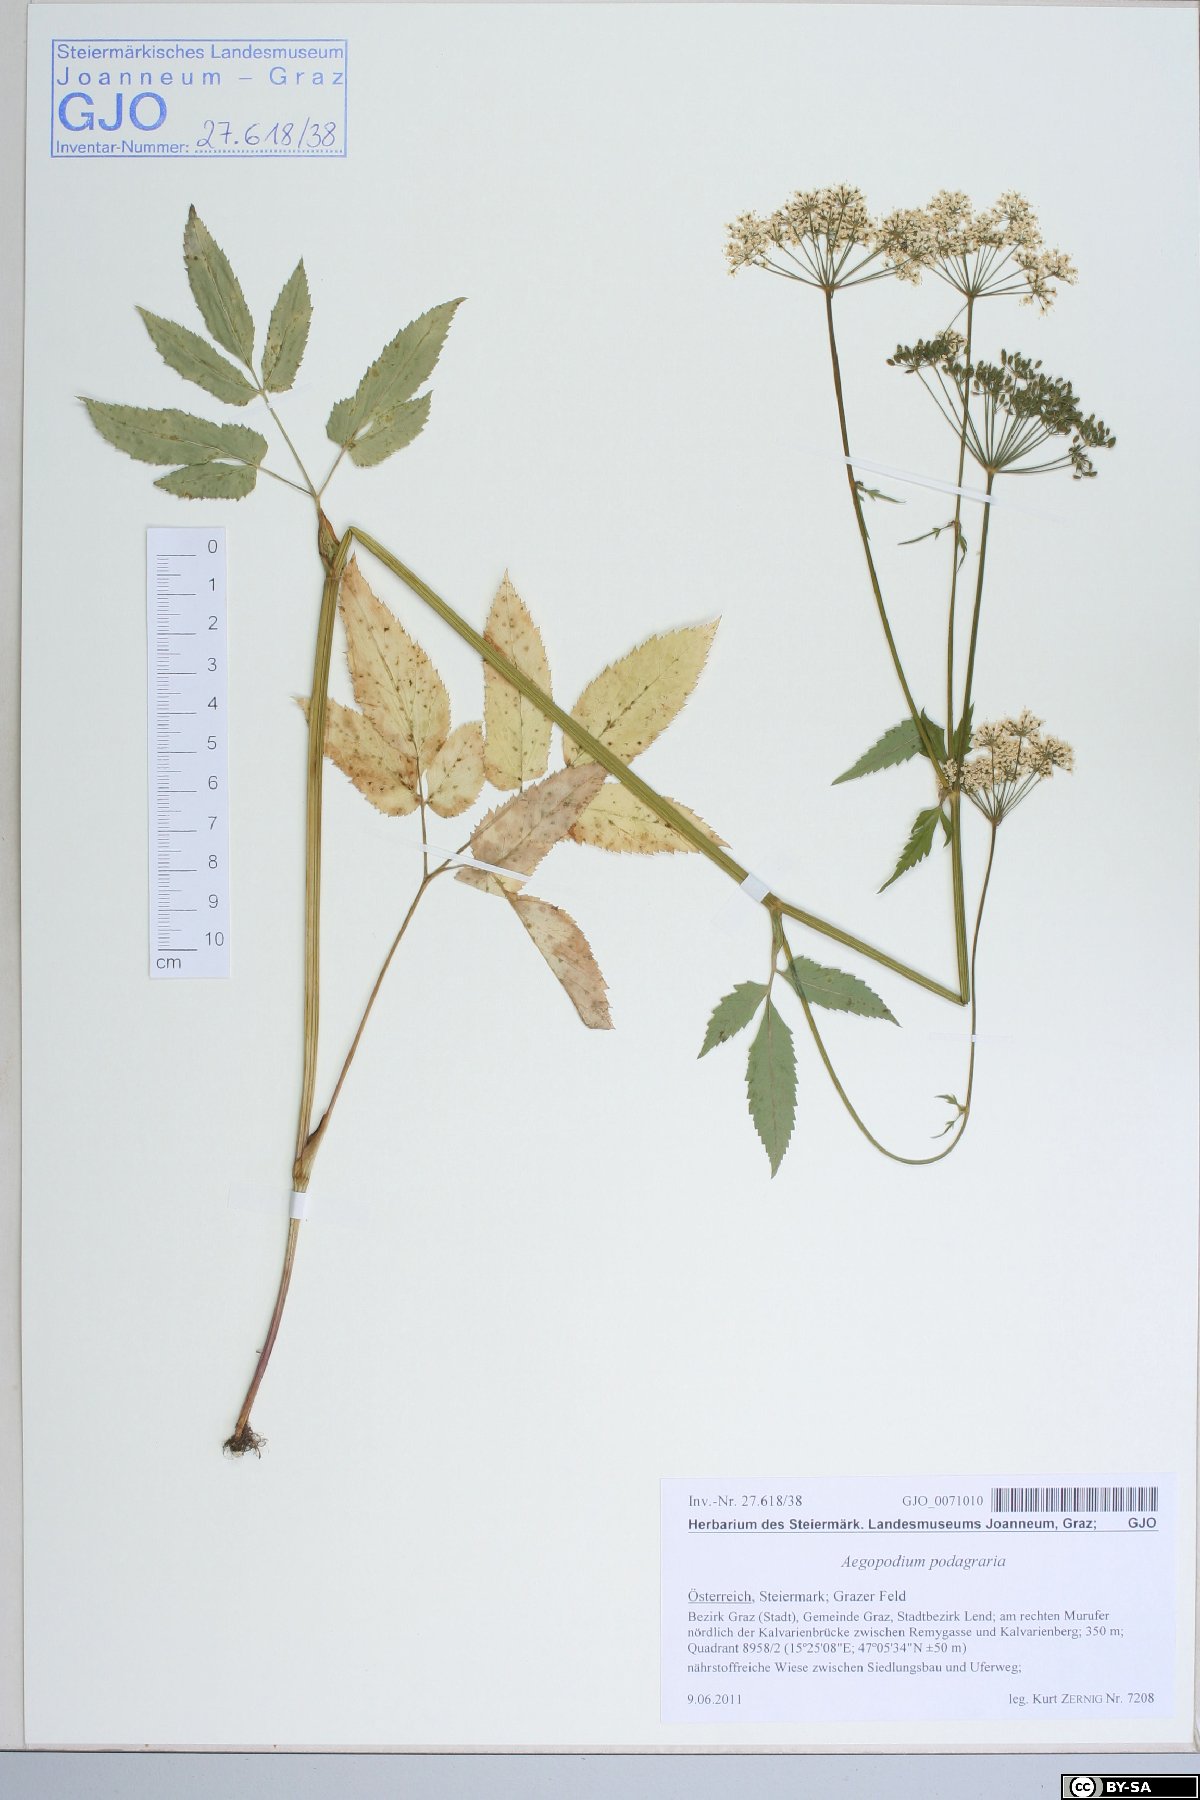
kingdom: Plantae
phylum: Tracheophyta
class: Magnoliopsida
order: Apiales
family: Apiaceae
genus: Aegopodium
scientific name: Aegopodium podagraria
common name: Ground-elder
